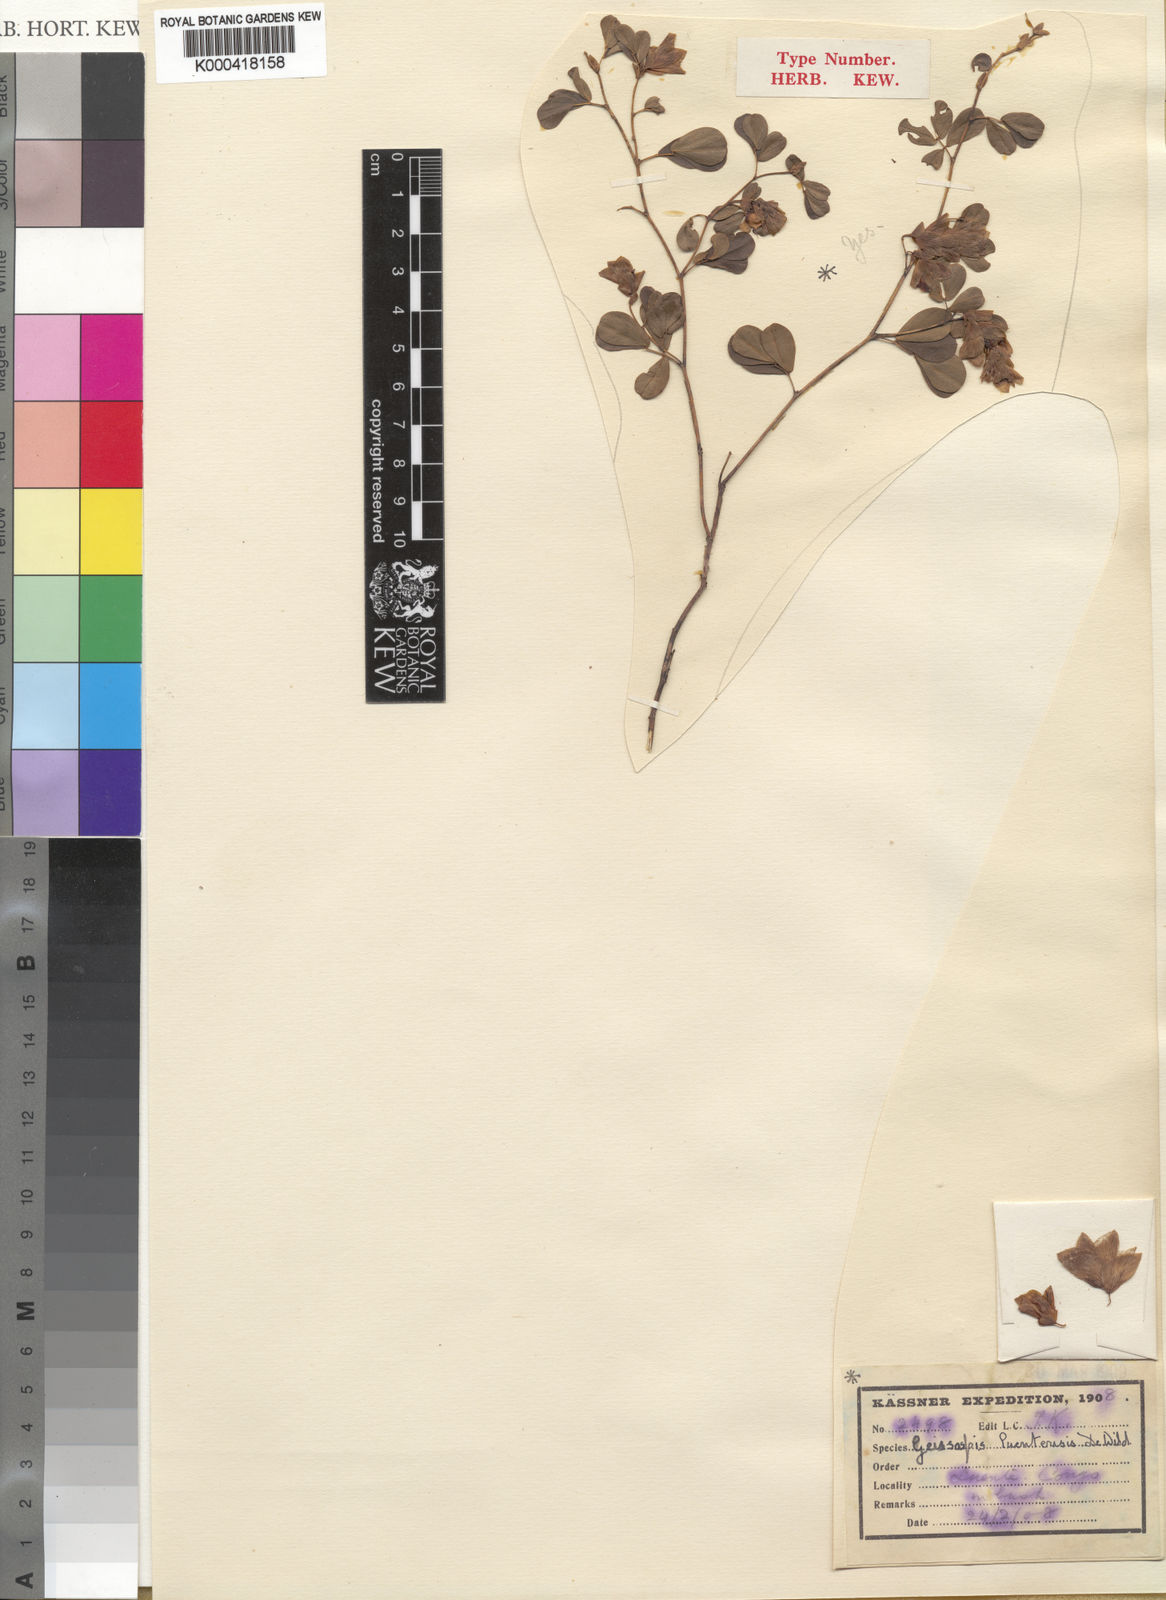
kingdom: Plantae
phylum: Tracheophyta
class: Magnoliopsida
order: Fabales
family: Fabaceae
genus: Humularia
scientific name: Humularia apiculata
